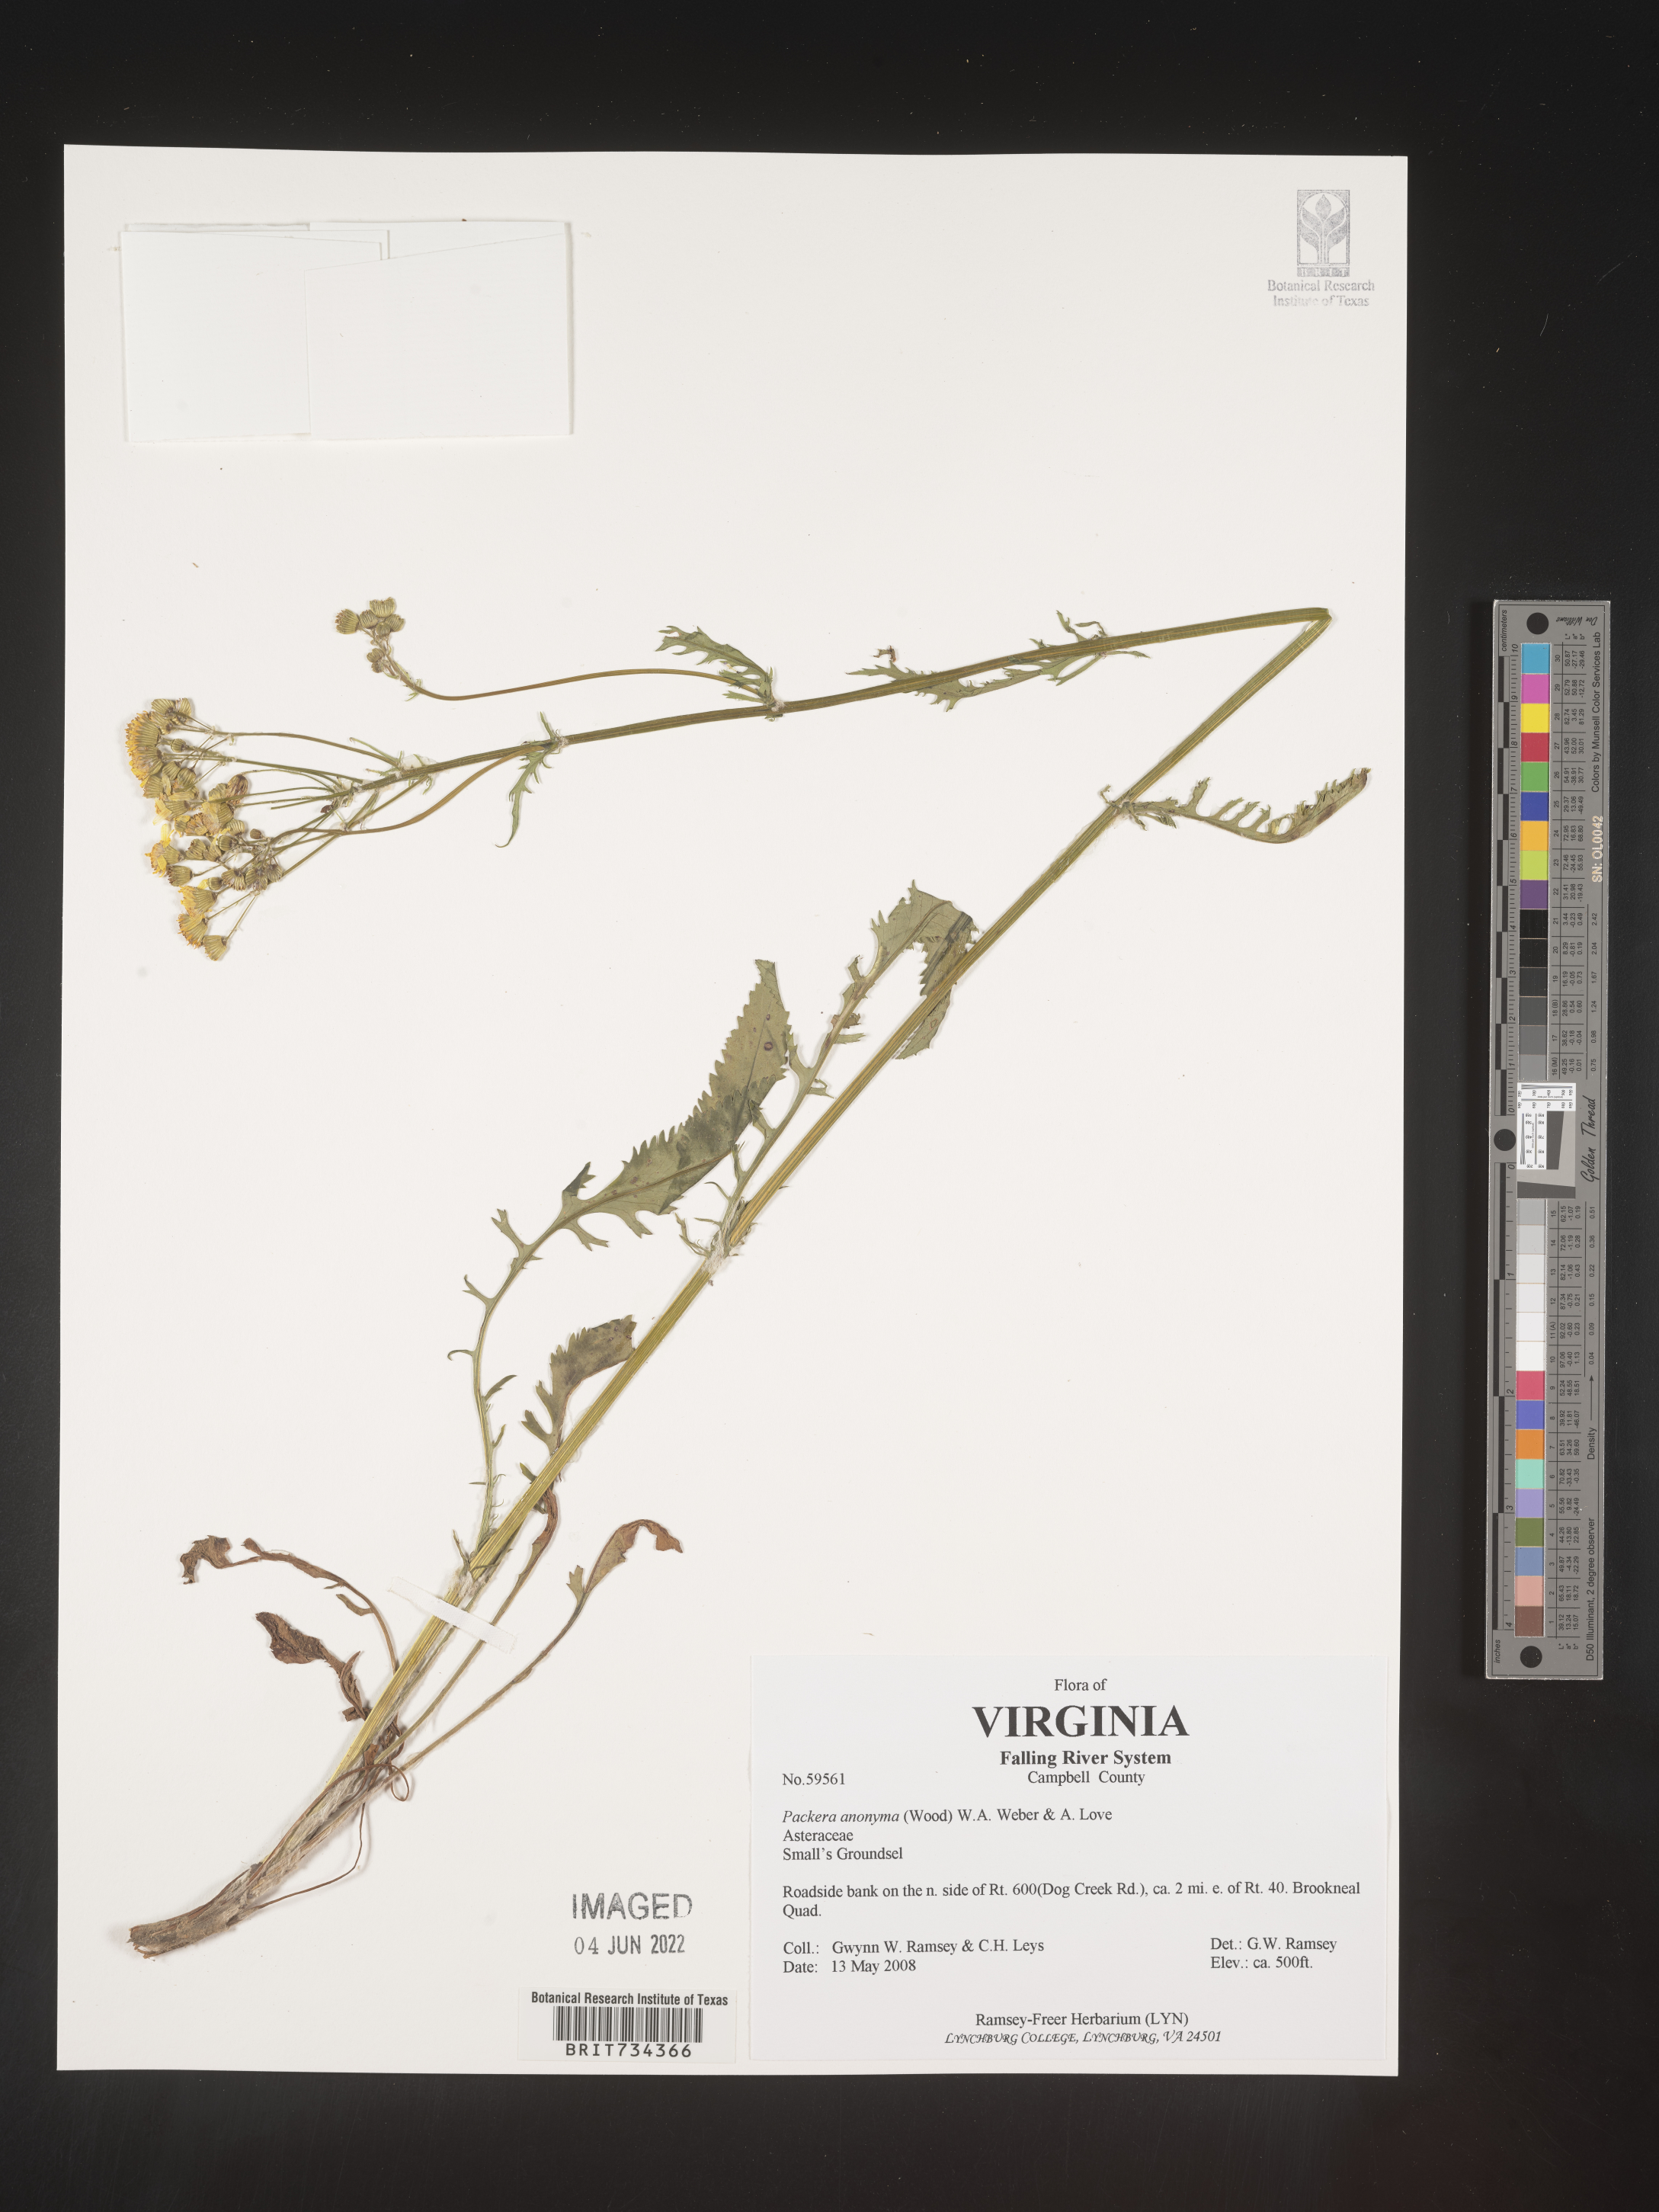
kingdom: Plantae
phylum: Tracheophyta
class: Magnoliopsida
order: Asterales
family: Asteraceae
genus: Packera
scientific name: Packera anonyma
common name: Small ragwort
